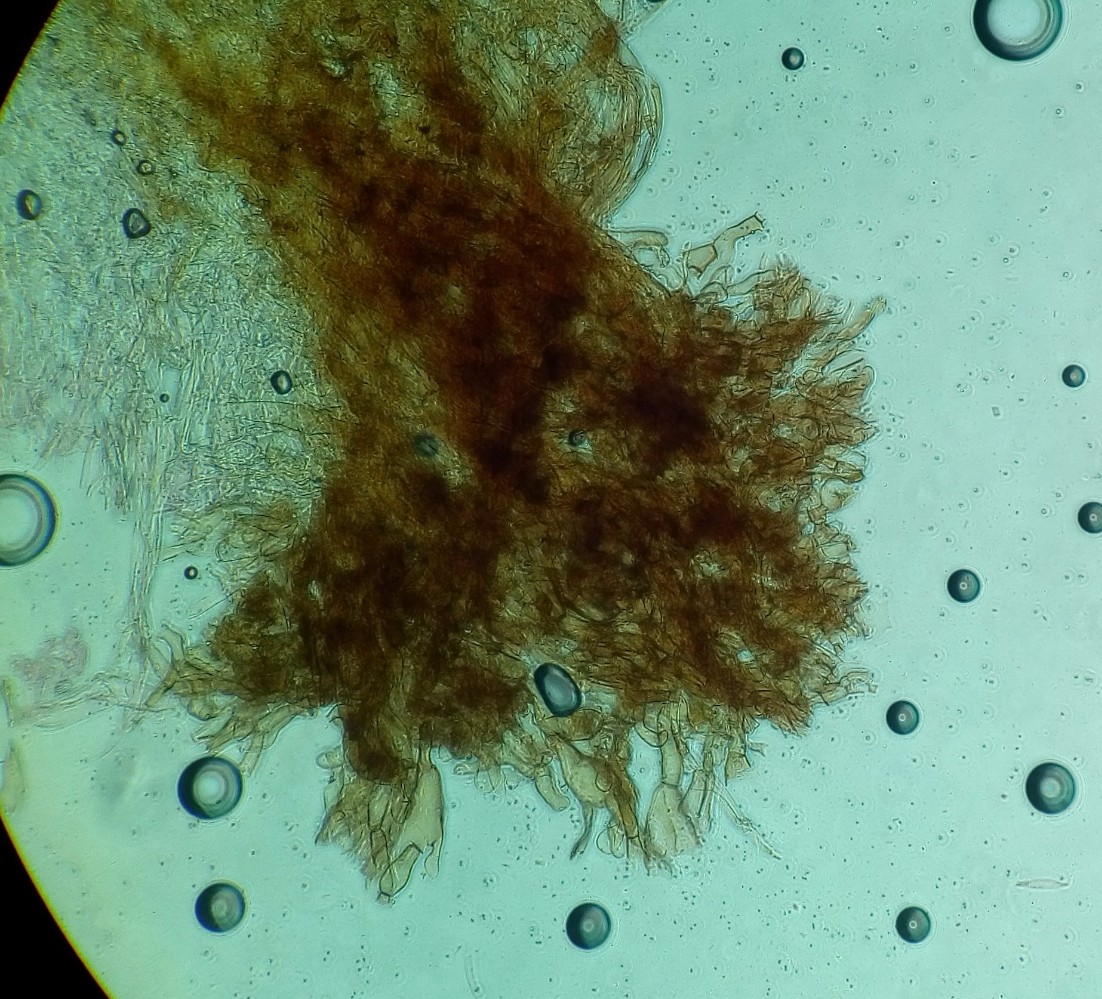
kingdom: Fungi
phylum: Basidiomycota
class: Agaricomycetes
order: Agaricales
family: Agaricaceae
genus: Lepiota
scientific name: Lepiota castanea
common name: kastaniebrun parasolhat
